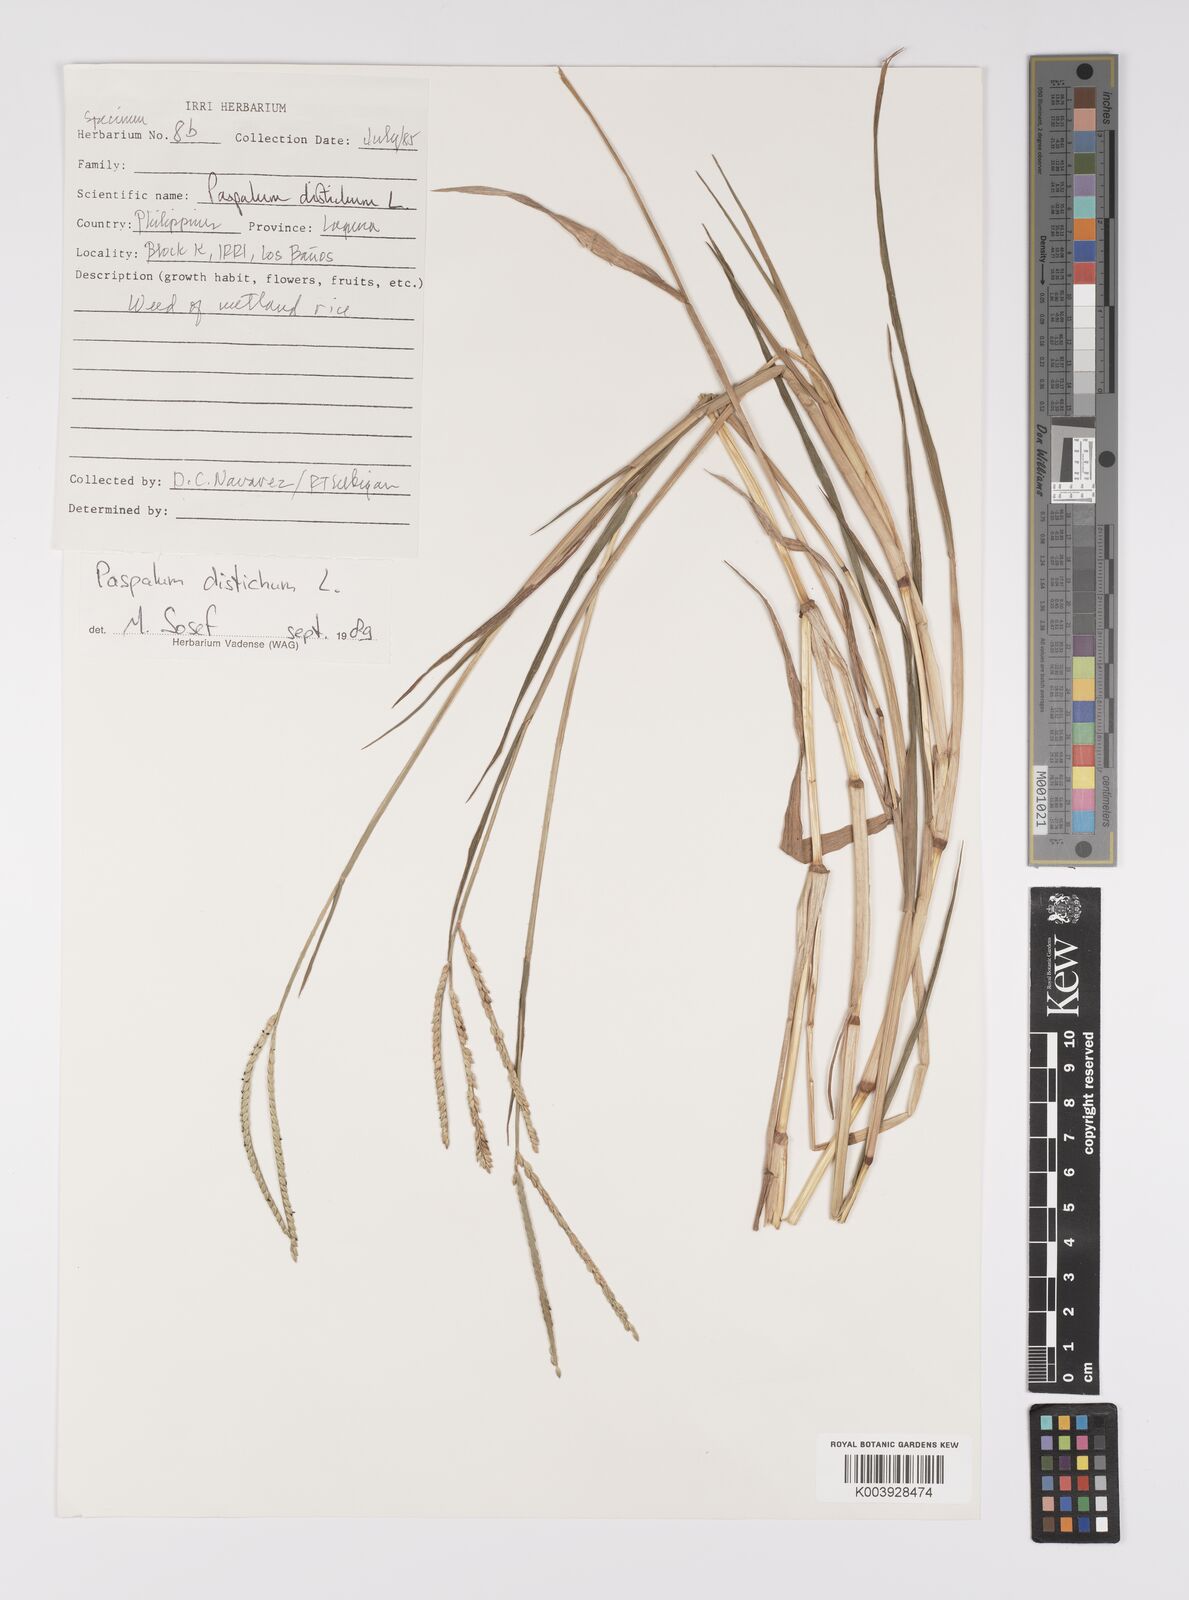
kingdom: Plantae
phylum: Tracheophyta
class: Liliopsida
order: Poales
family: Poaceae
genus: Paspalum
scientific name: Paspalum distichum
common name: Knotgrass
